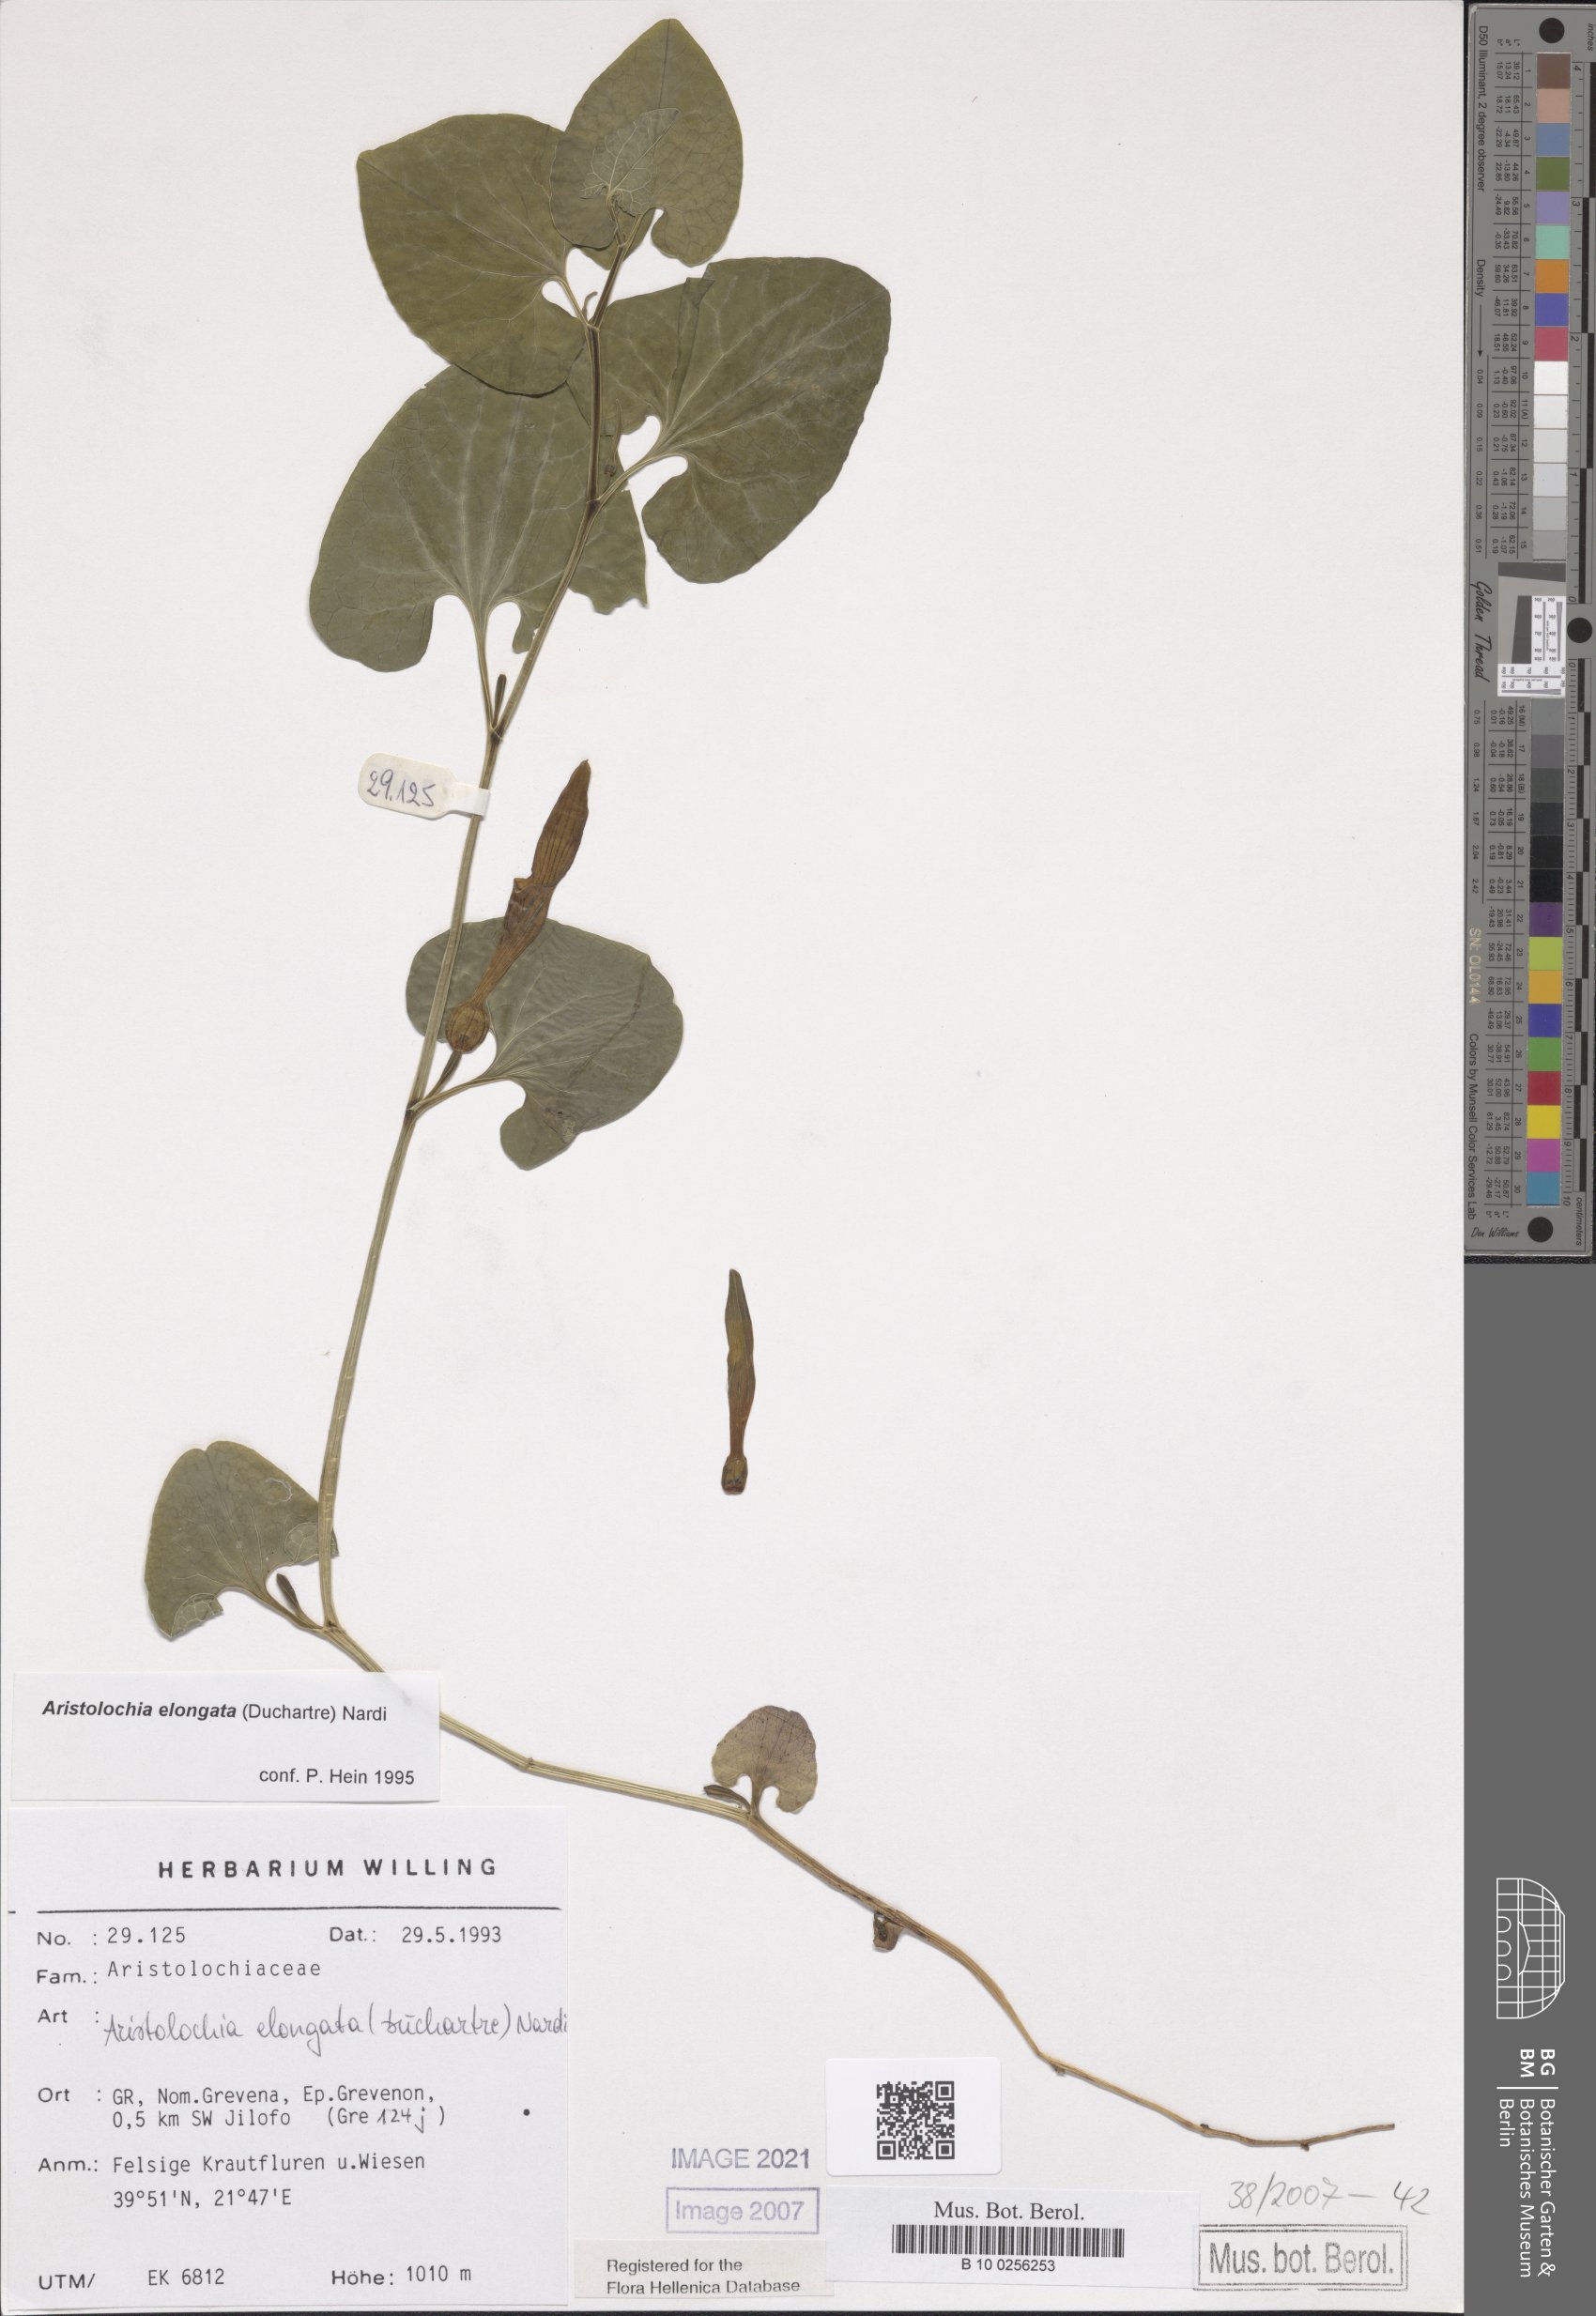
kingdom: Plantae
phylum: Tracheophyta
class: Magnoliopsida
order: Piperales
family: Aristolochiaceae
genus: Aristolochia
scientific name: Aristolochia nardiana
